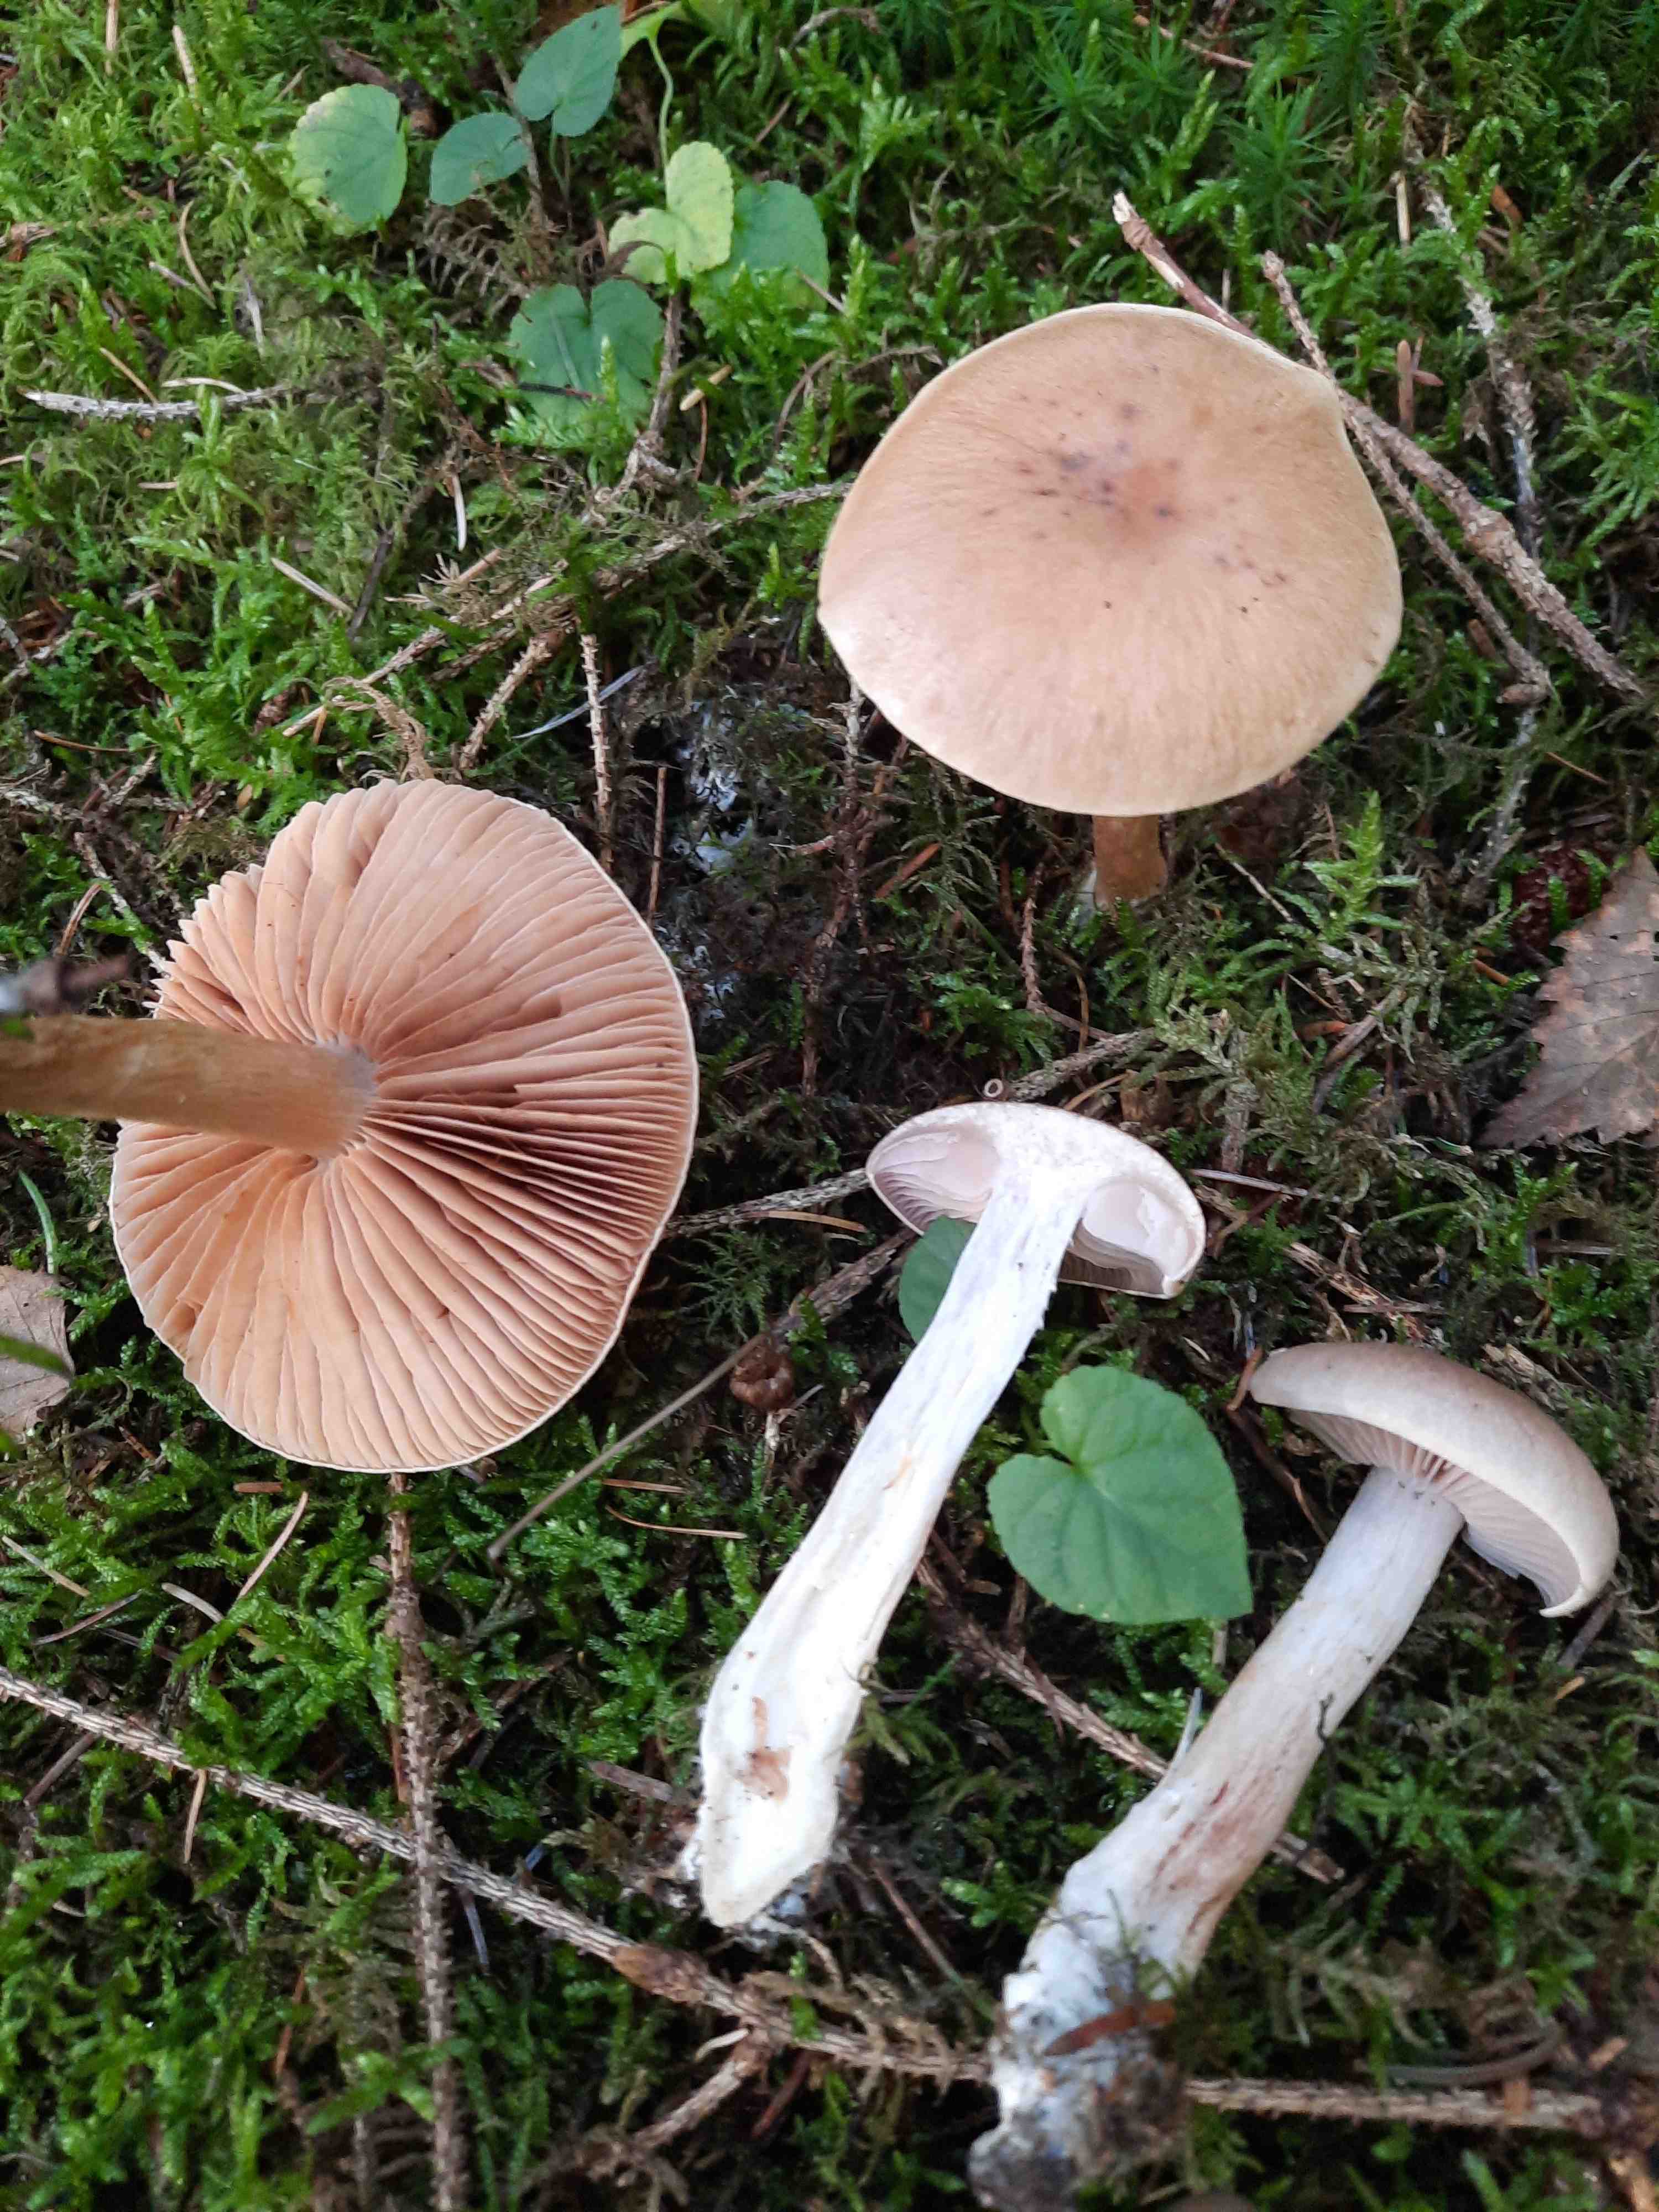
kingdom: Fungi
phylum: Basidiomycota
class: Agaricomycetes
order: Agaricales
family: Cortinariaceae
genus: Cortinarius
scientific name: Cortinarius
